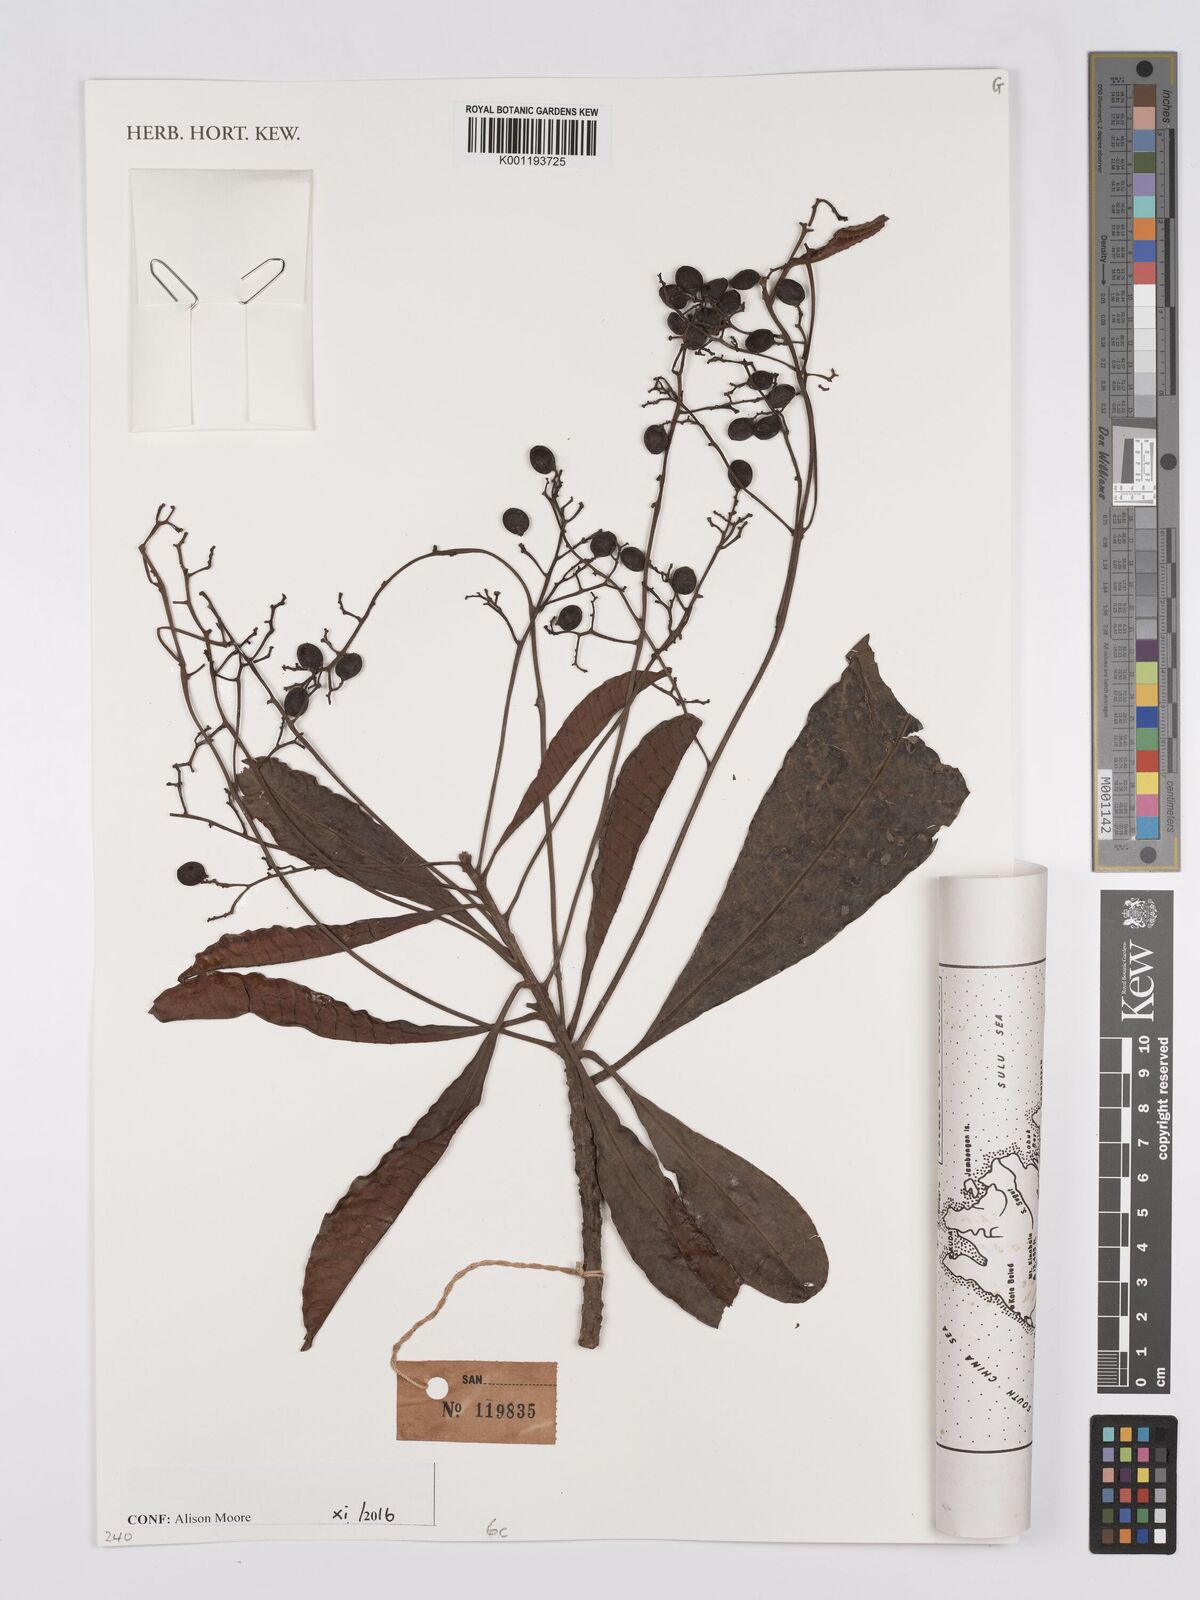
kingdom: Plantae
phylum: Tracheophyta
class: Magnoliopsida
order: Sapindales
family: Anacardiaceae
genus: Buchanania
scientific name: Buchanania sessifolia
